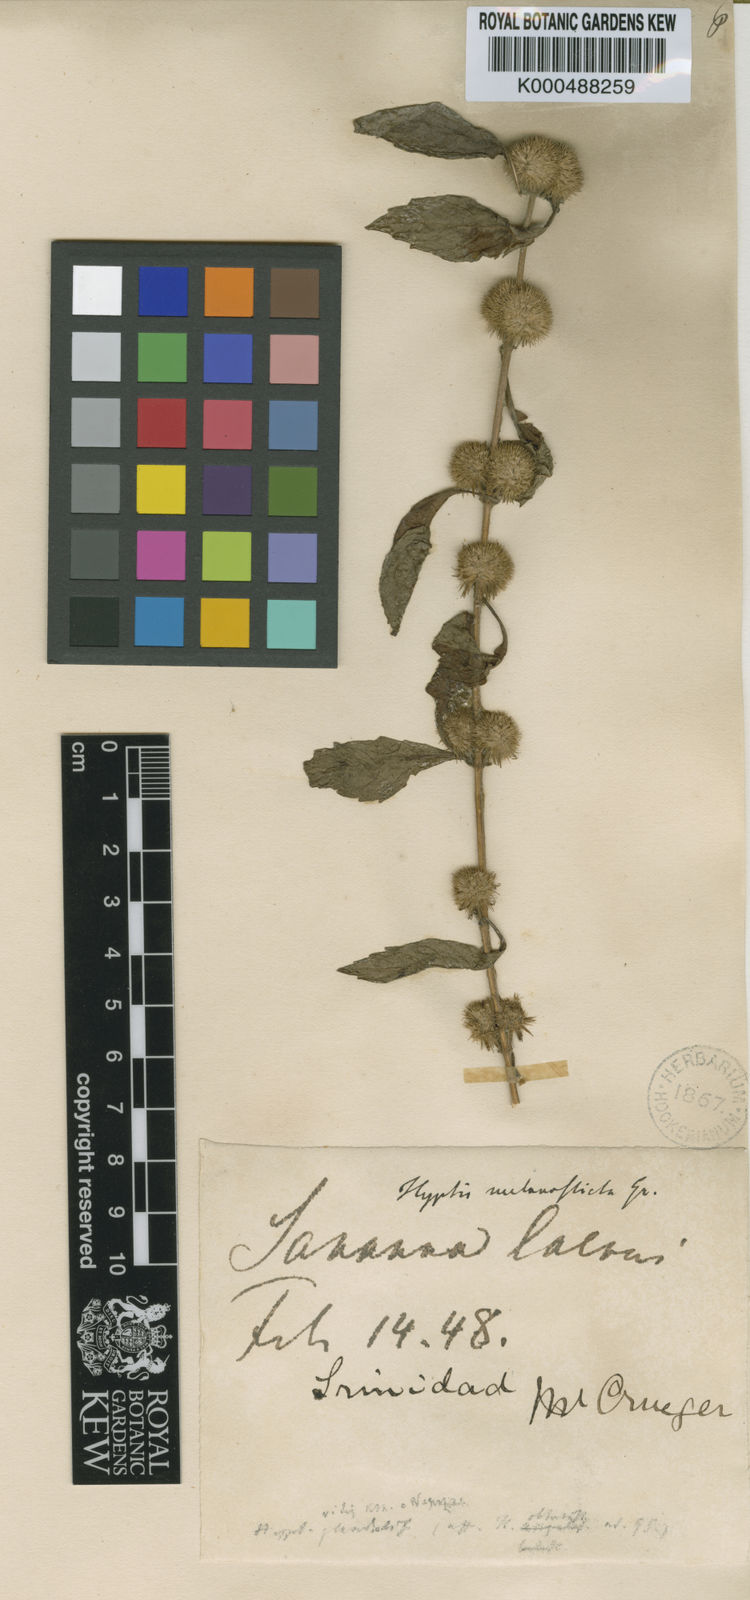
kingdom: Plantae
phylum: Tracheophyta
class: Magnoliopsida
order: Lamiales
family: Lamiaceae
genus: Hyptis
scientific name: Hyptis brevipes
